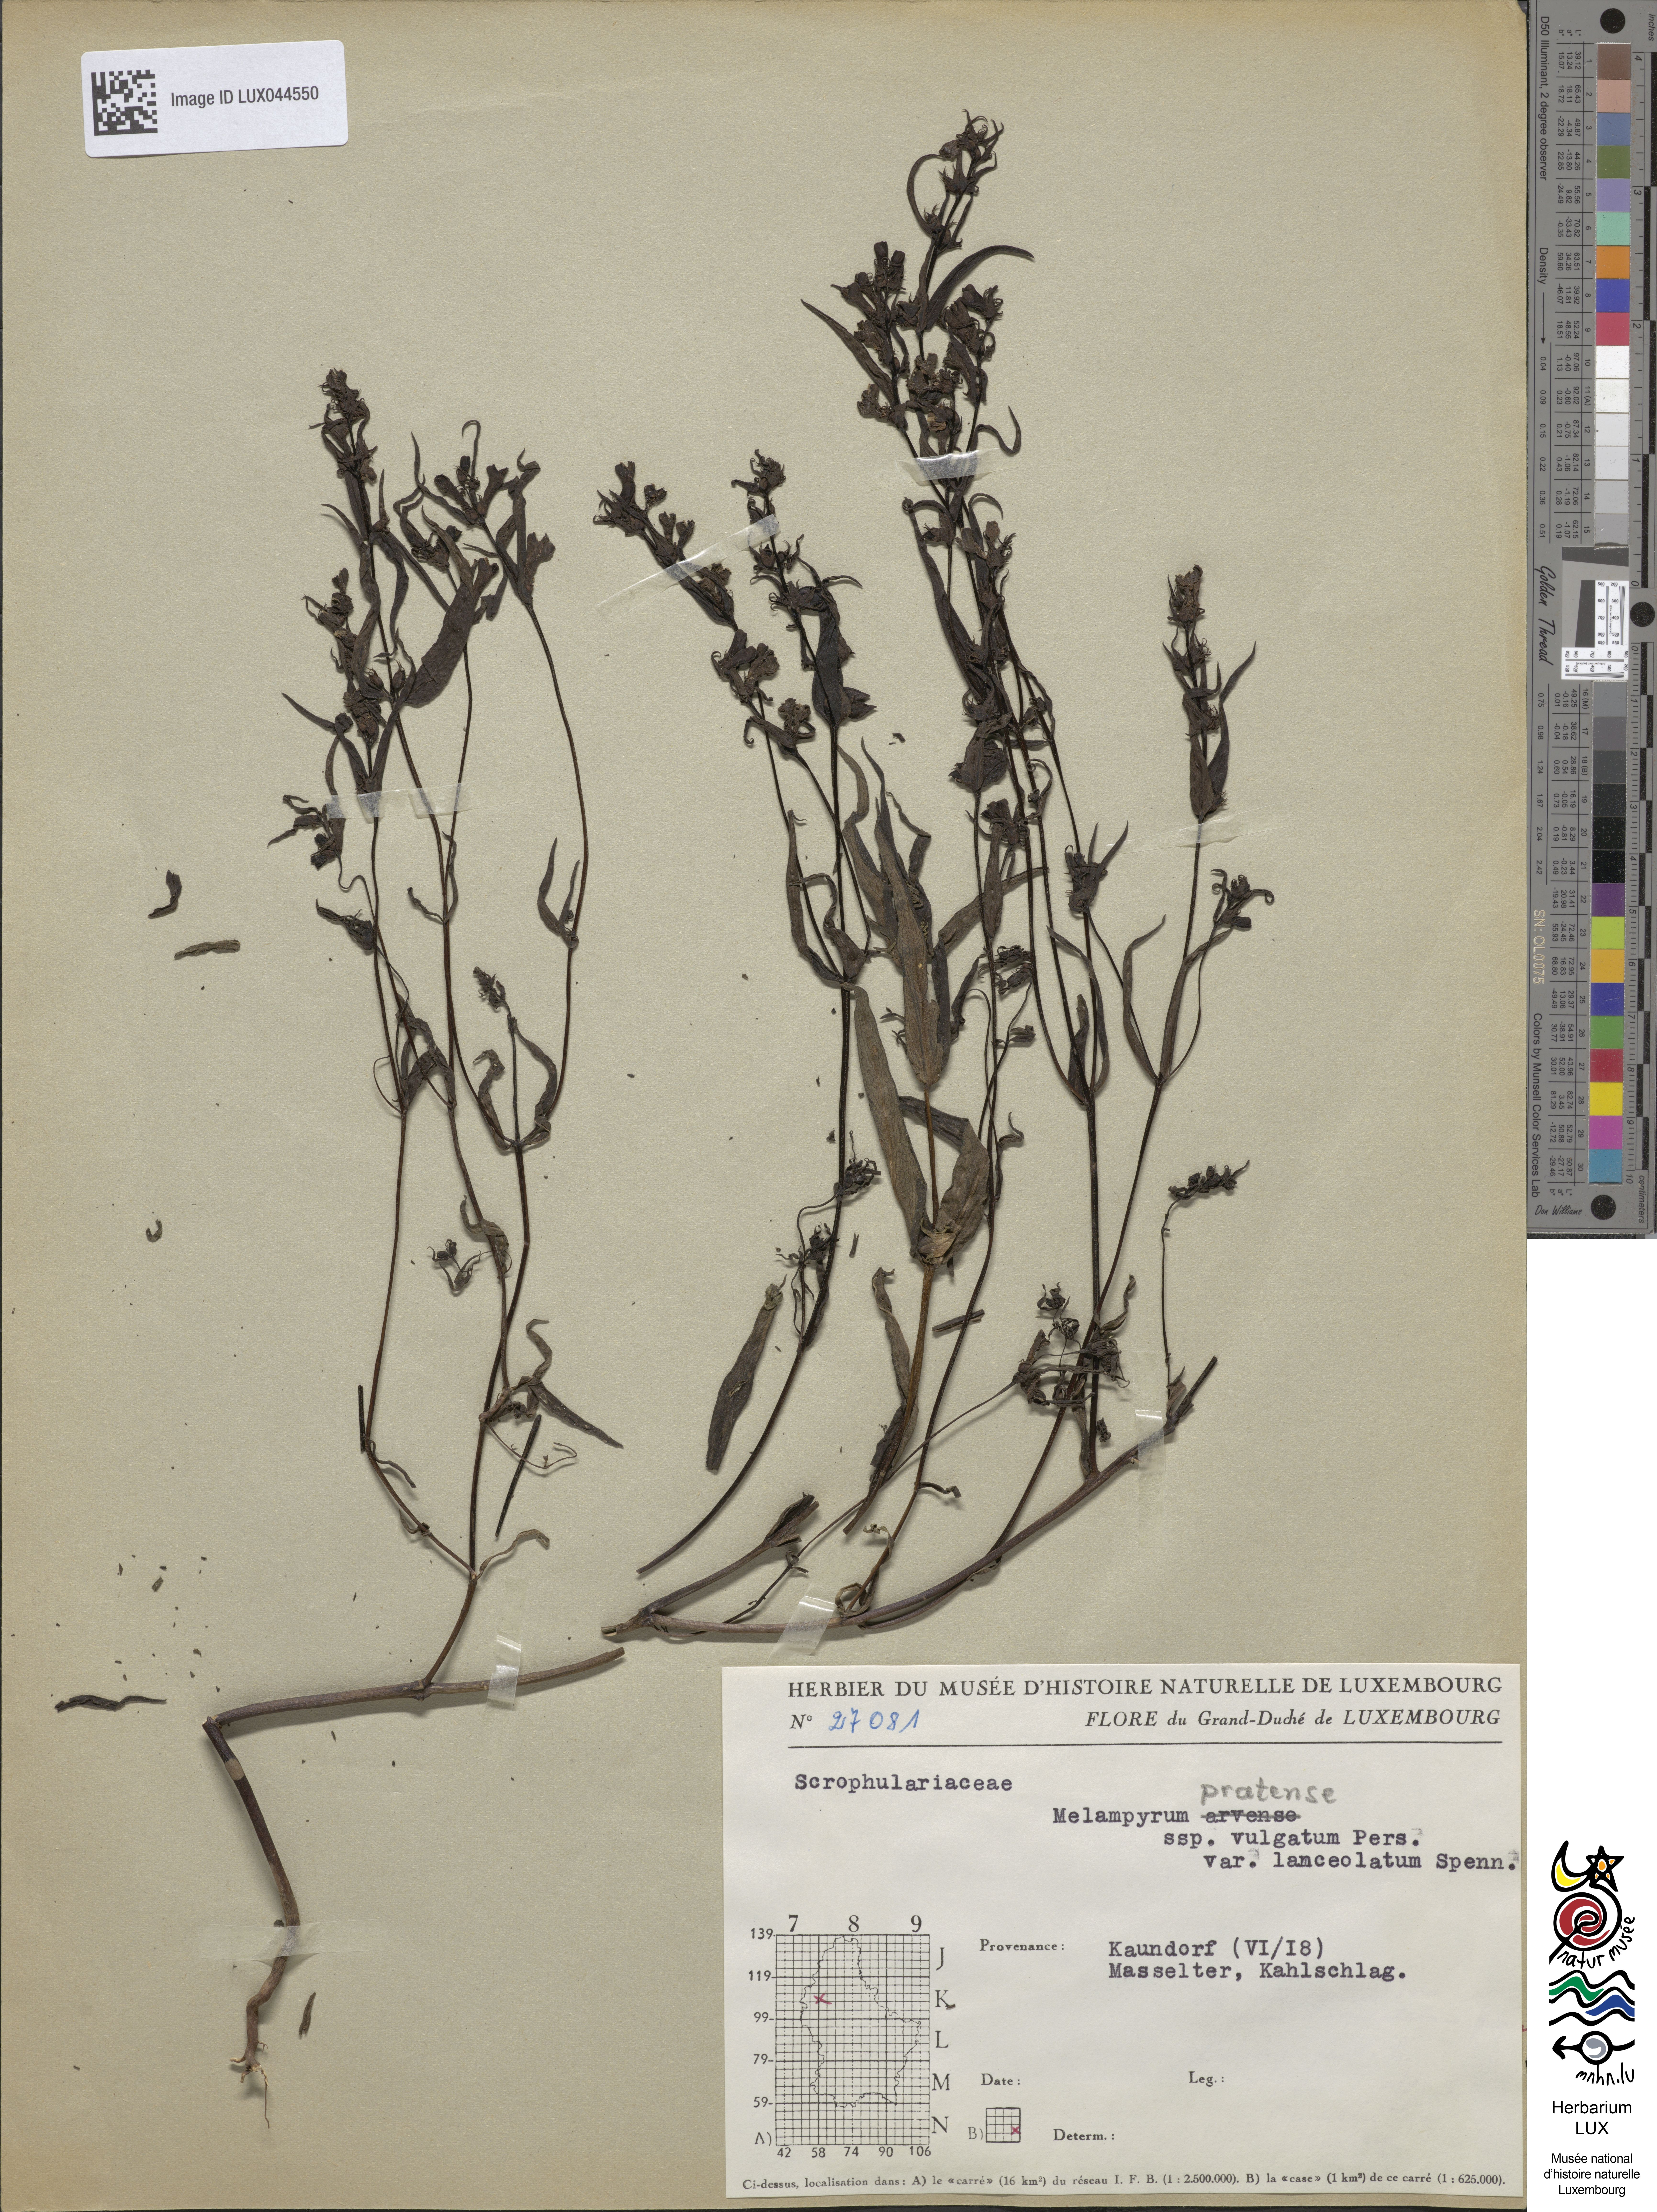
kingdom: Plantae
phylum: Tracheophyta
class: Magnoliopsida
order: Lamiales
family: Orobanchaceae
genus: Melampyrum
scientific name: Melampyrum pratense
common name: Common cow-wheat
